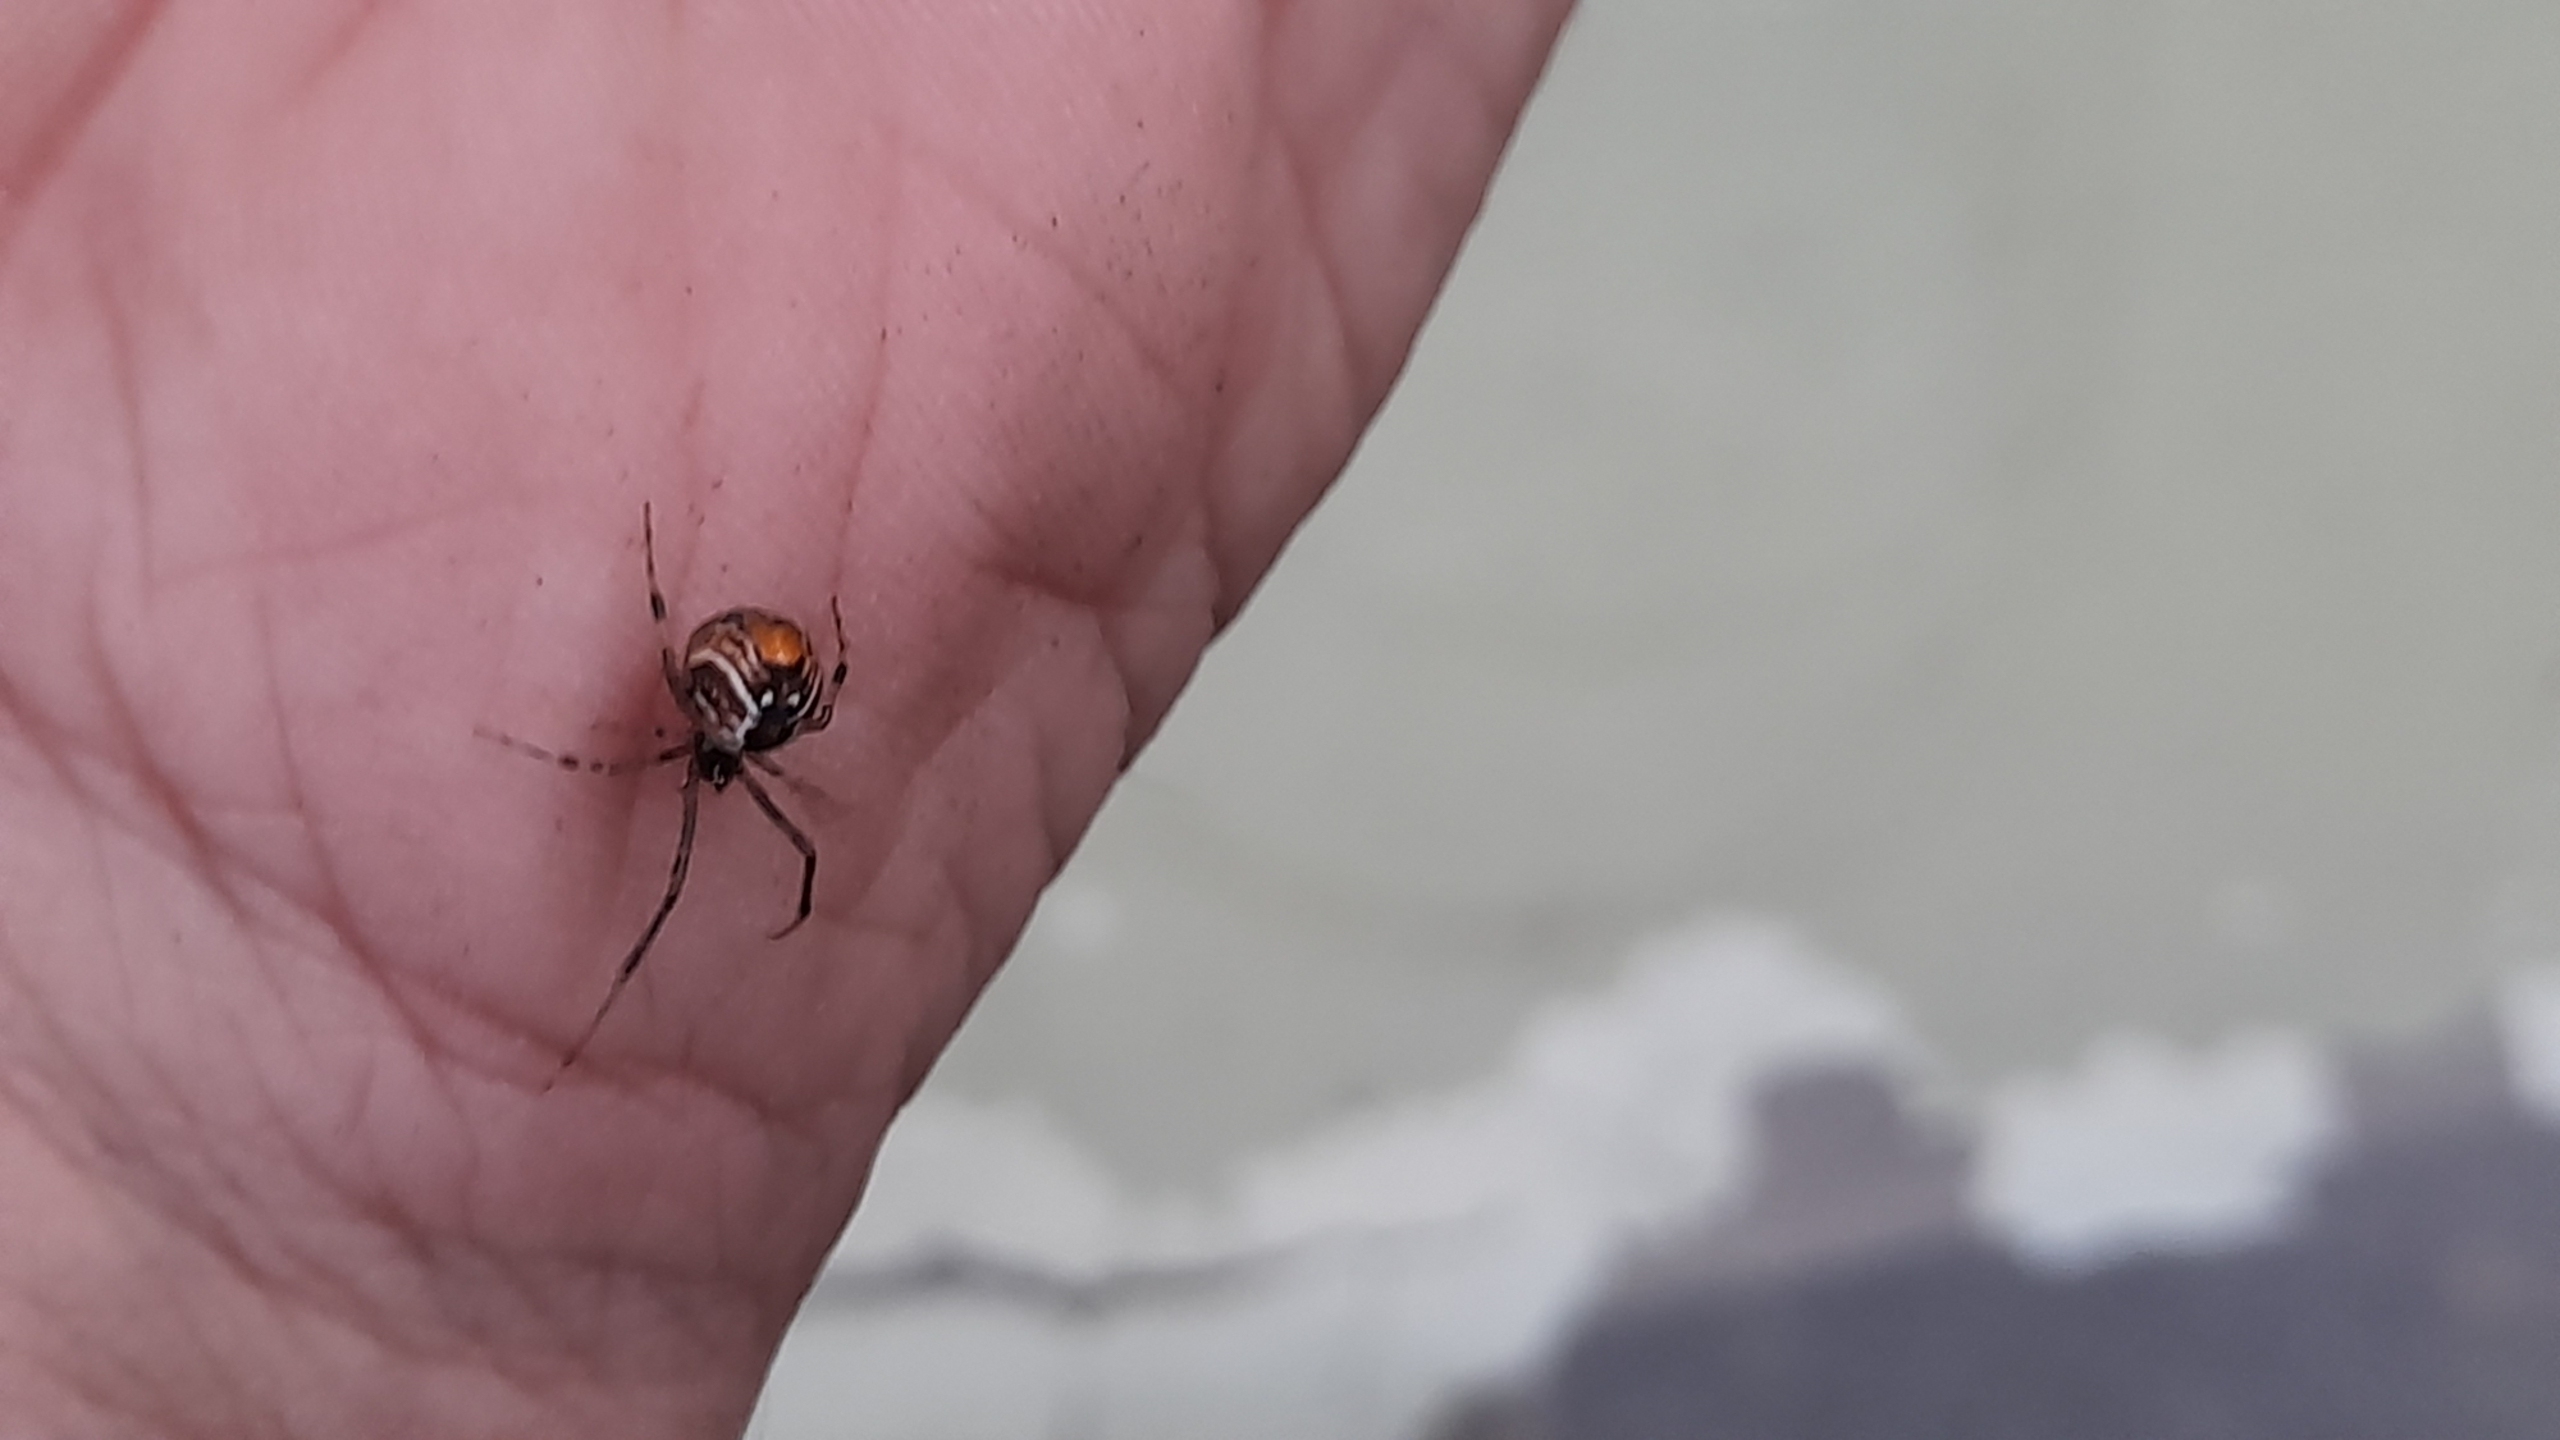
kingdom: Animalia
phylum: Arthropoda
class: Arachnida
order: Araneae
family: Theridiidae
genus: Parasteatoda
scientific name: Parasteatoda lunata
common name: Bladhyttespinder
